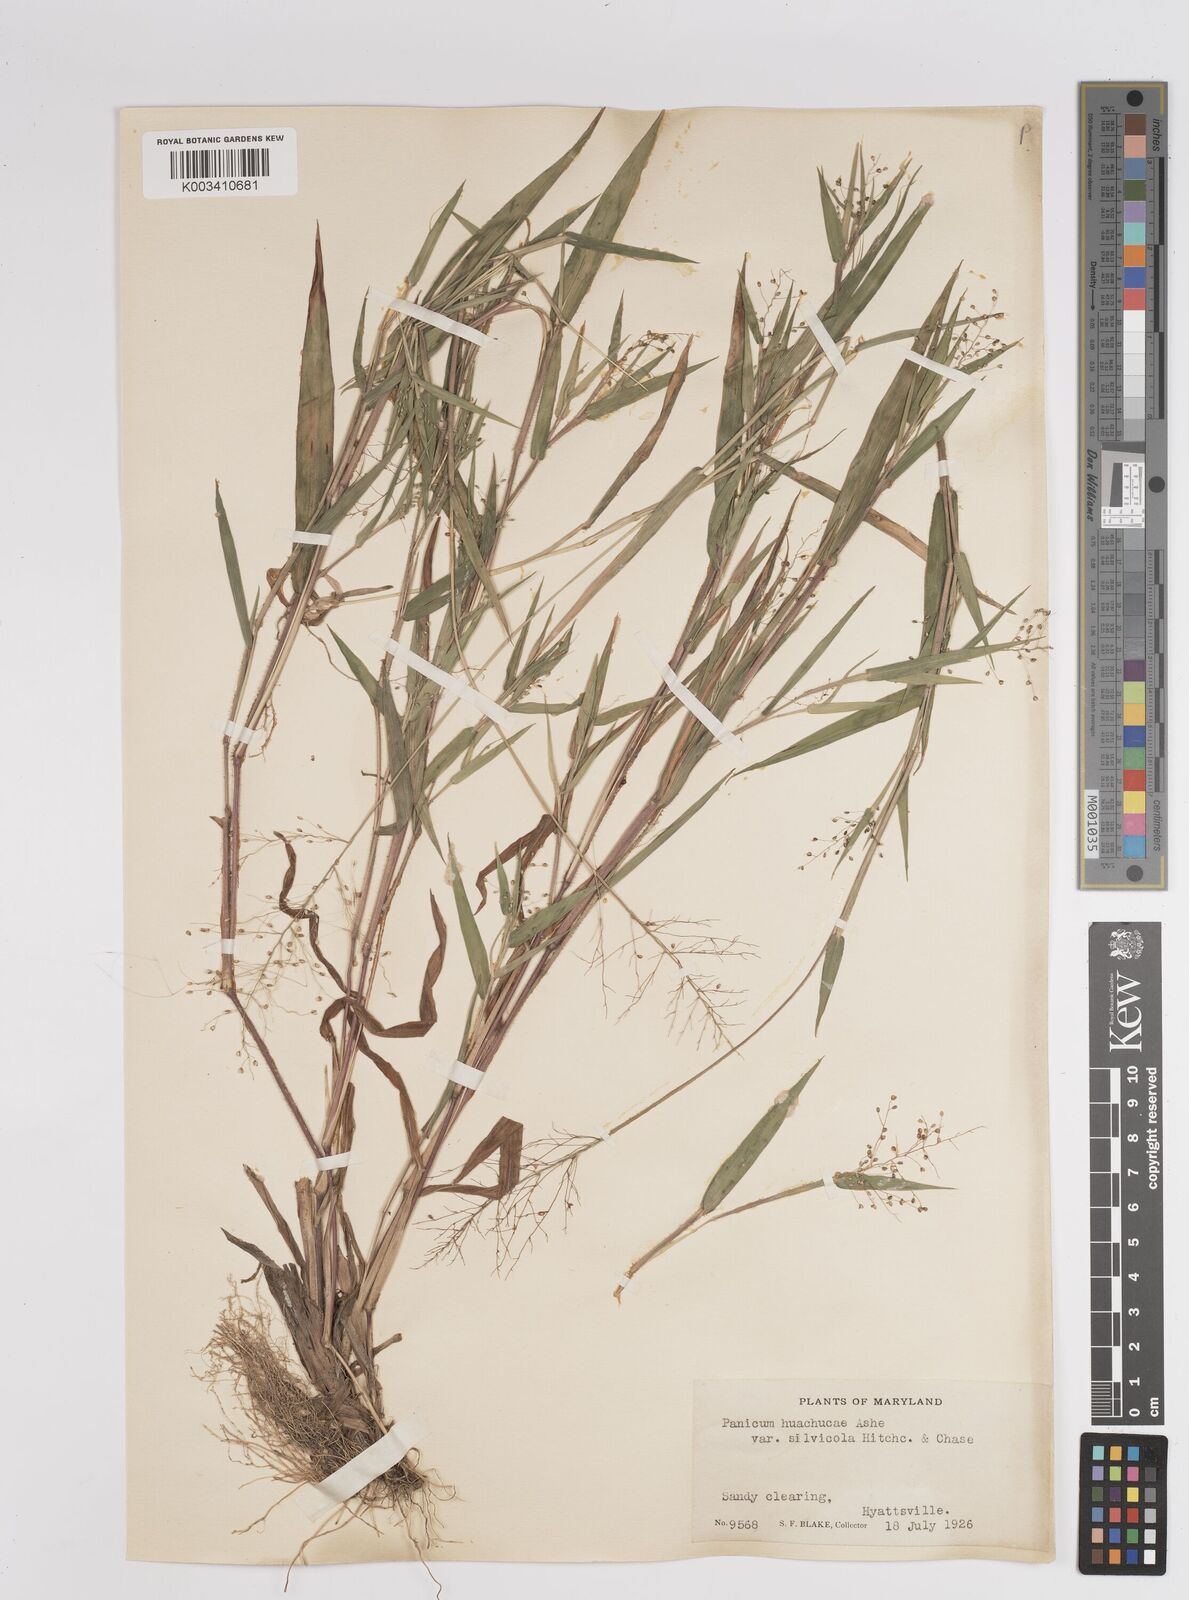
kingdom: Plantae
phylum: Tracheophyta
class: Liliopsida
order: Poales
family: Poaceae
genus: Dichanthelium
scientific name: Dichanthelium lanuginosum
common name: Woolly panicgrass
